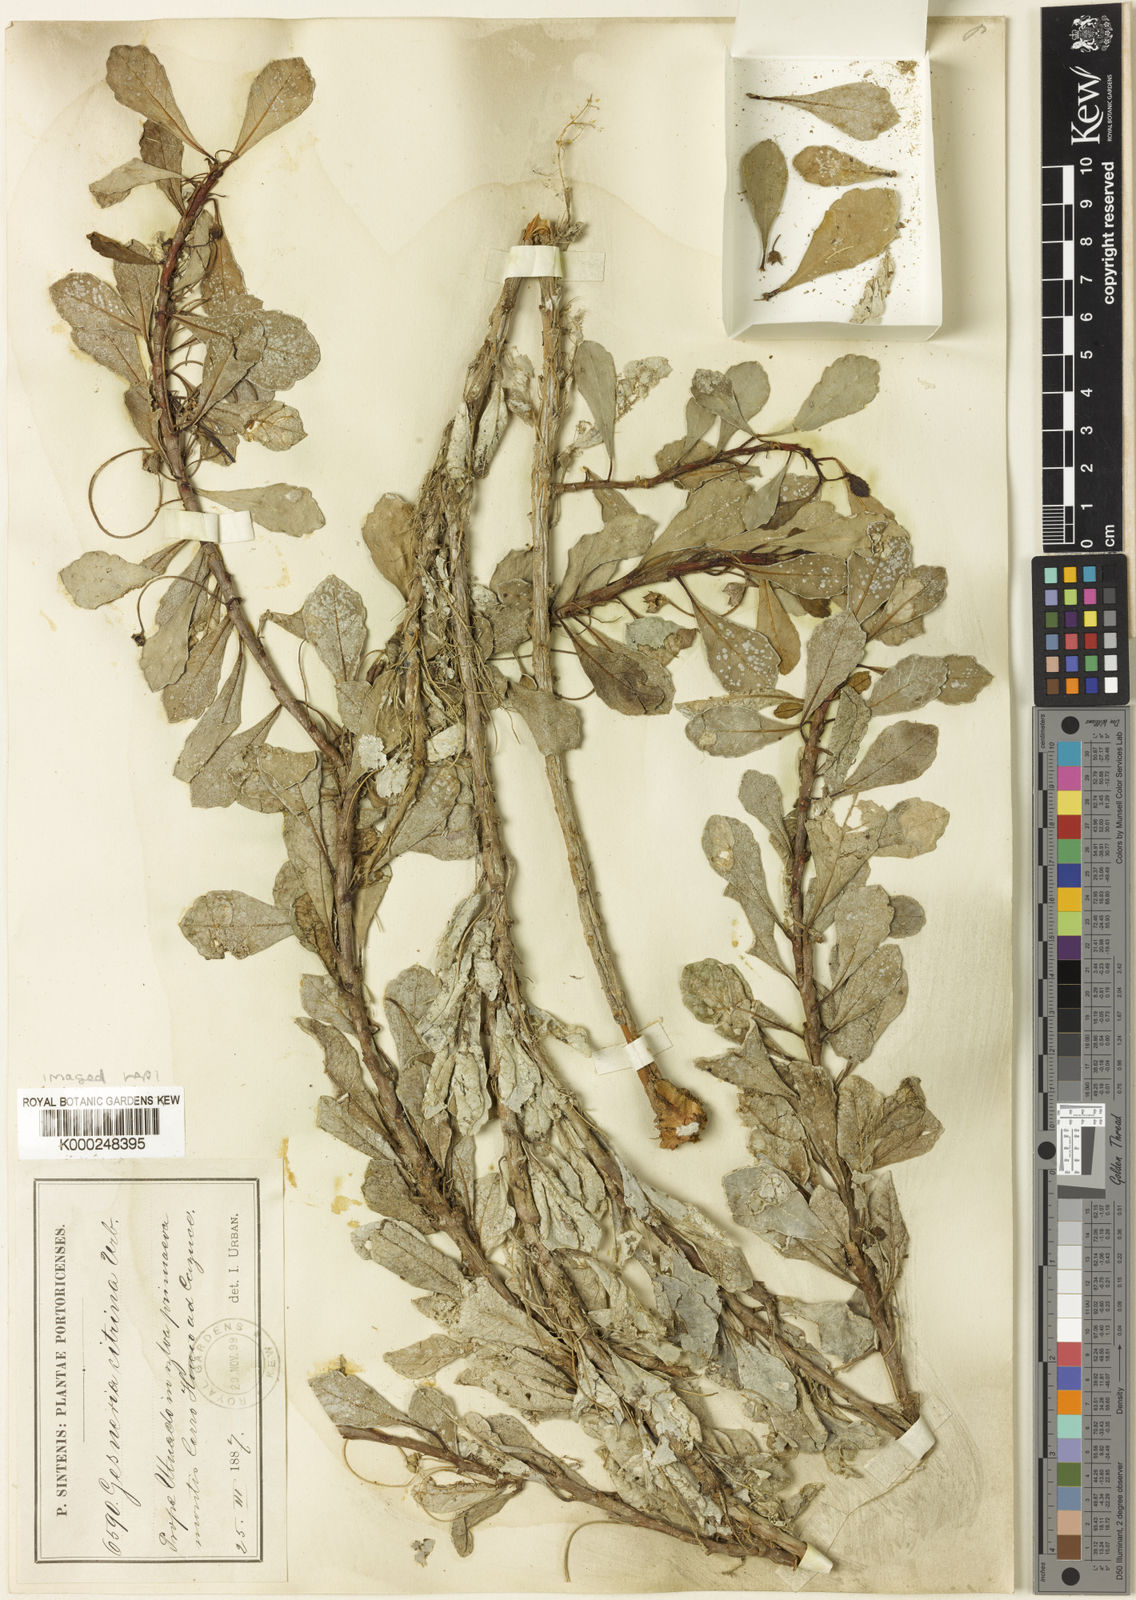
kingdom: Plantae
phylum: Tracheophyta
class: Magnoliopsida
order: Lamiales
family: Gesneriaceae
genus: Gesneria
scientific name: Gesneria citrina
